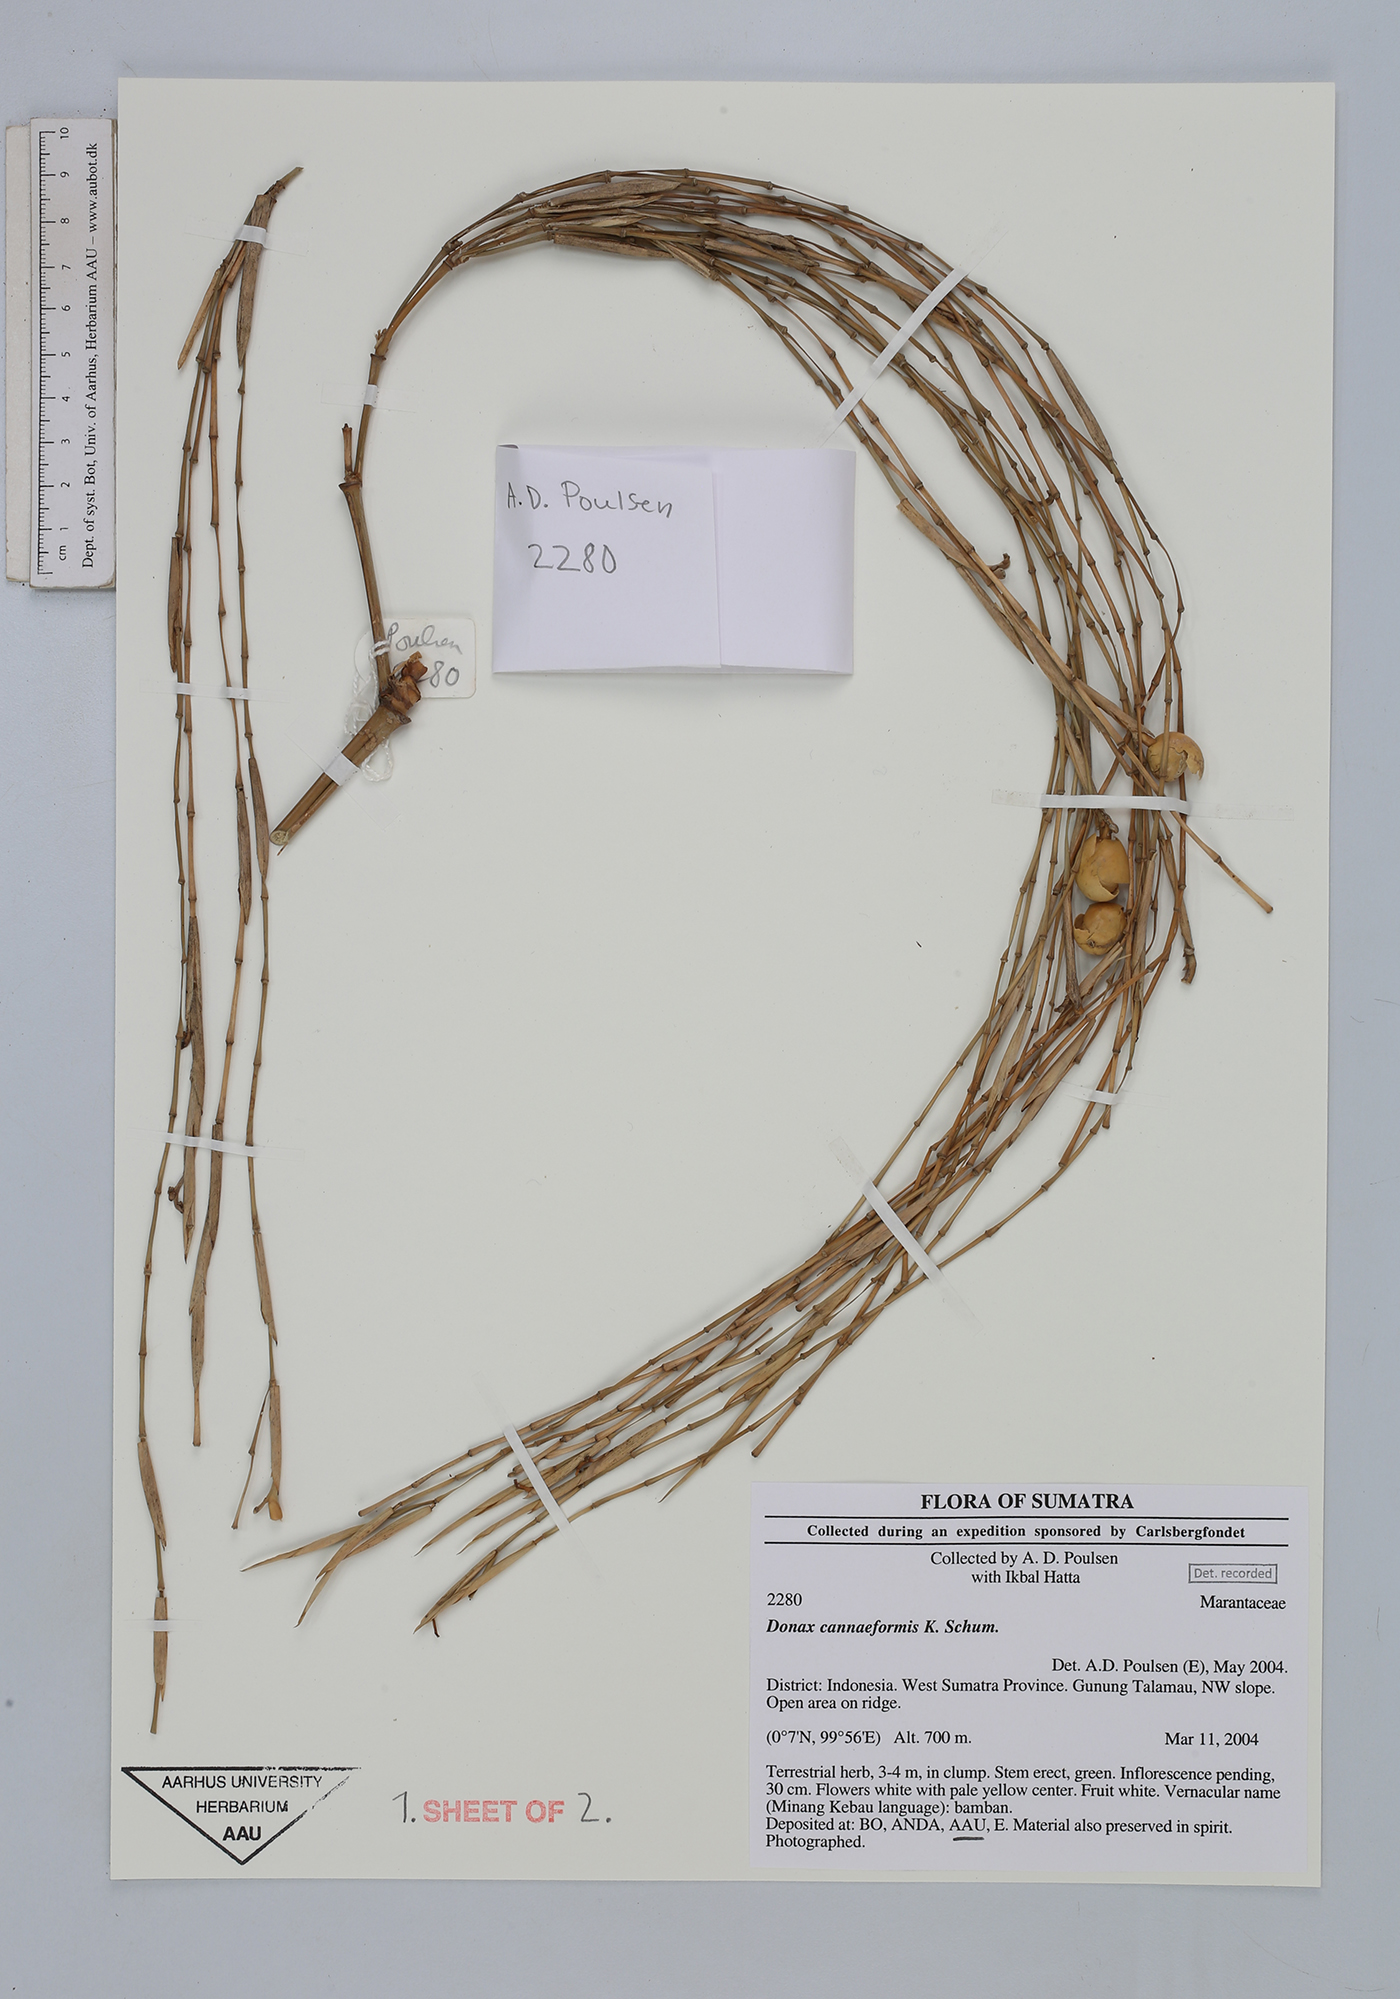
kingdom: Plantae
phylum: Tracheophyta
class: Liliopsida
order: Zingiberales
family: Marantaceae
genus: Donax
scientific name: Donax canniformis
